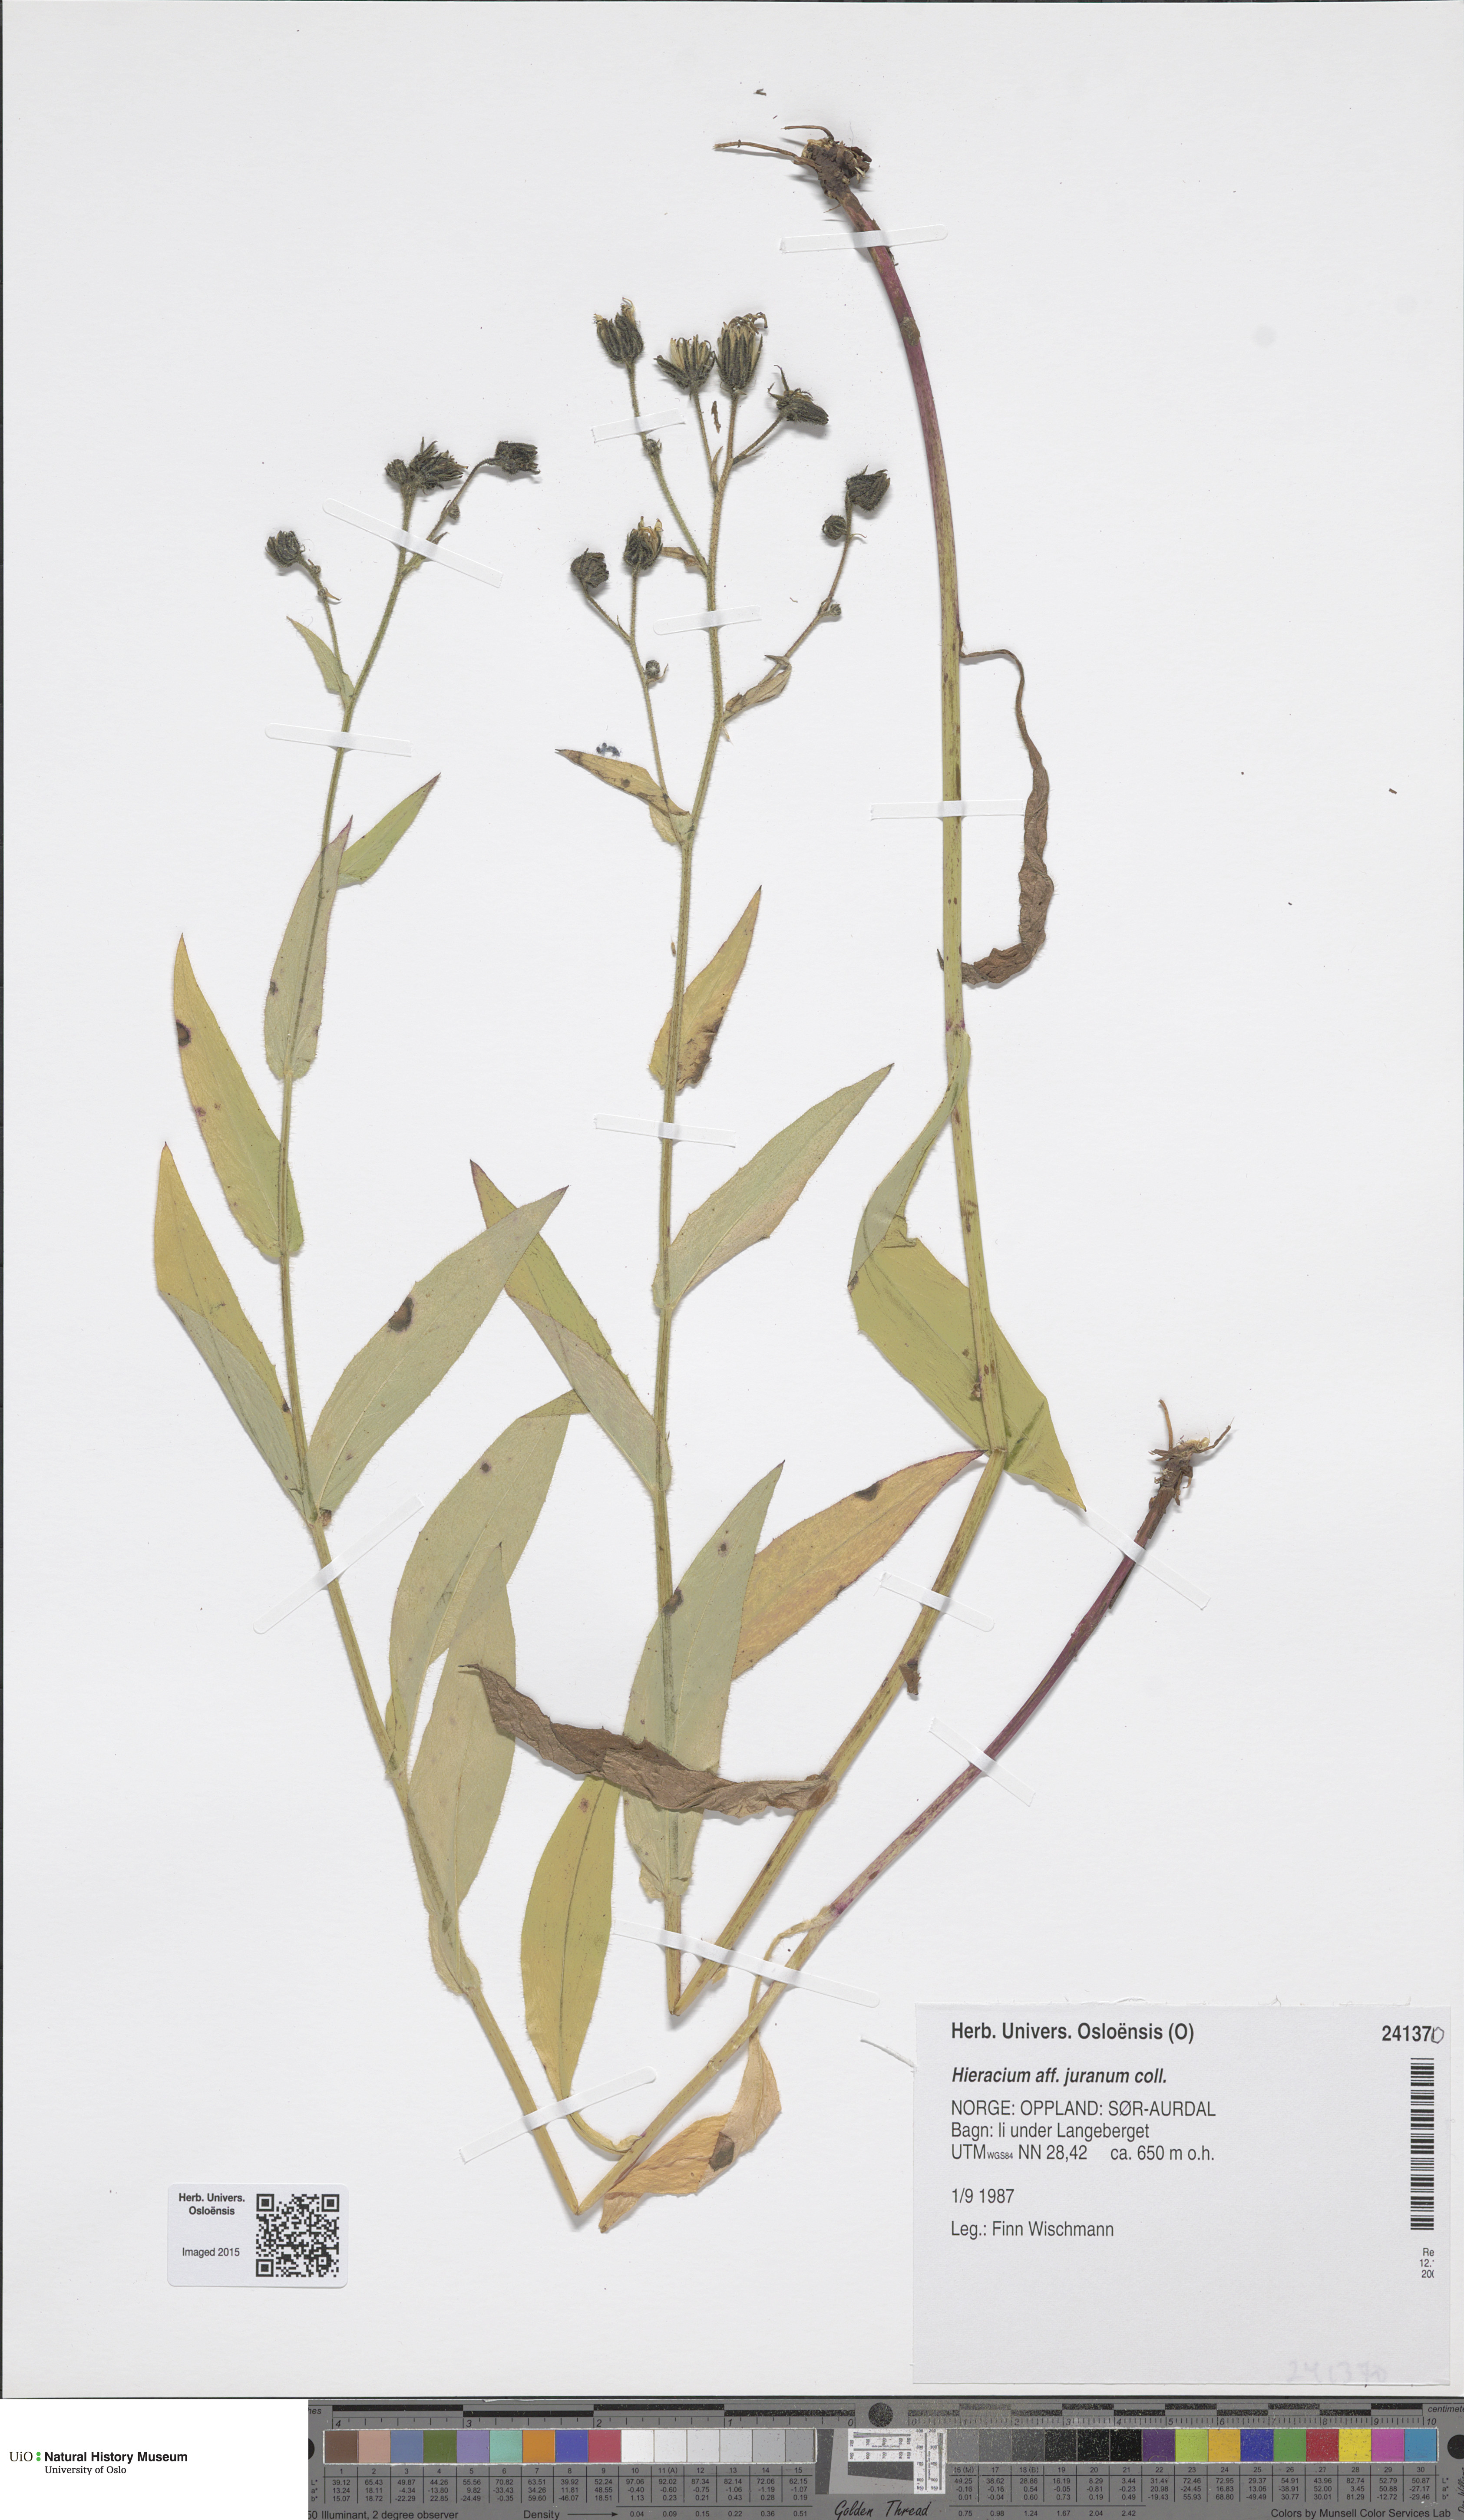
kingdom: Plantae
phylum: Tracheophyta
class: Magnoliopsida
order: Asterales
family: Asteraceae
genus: Hieracium
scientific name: Hieracium juranum
